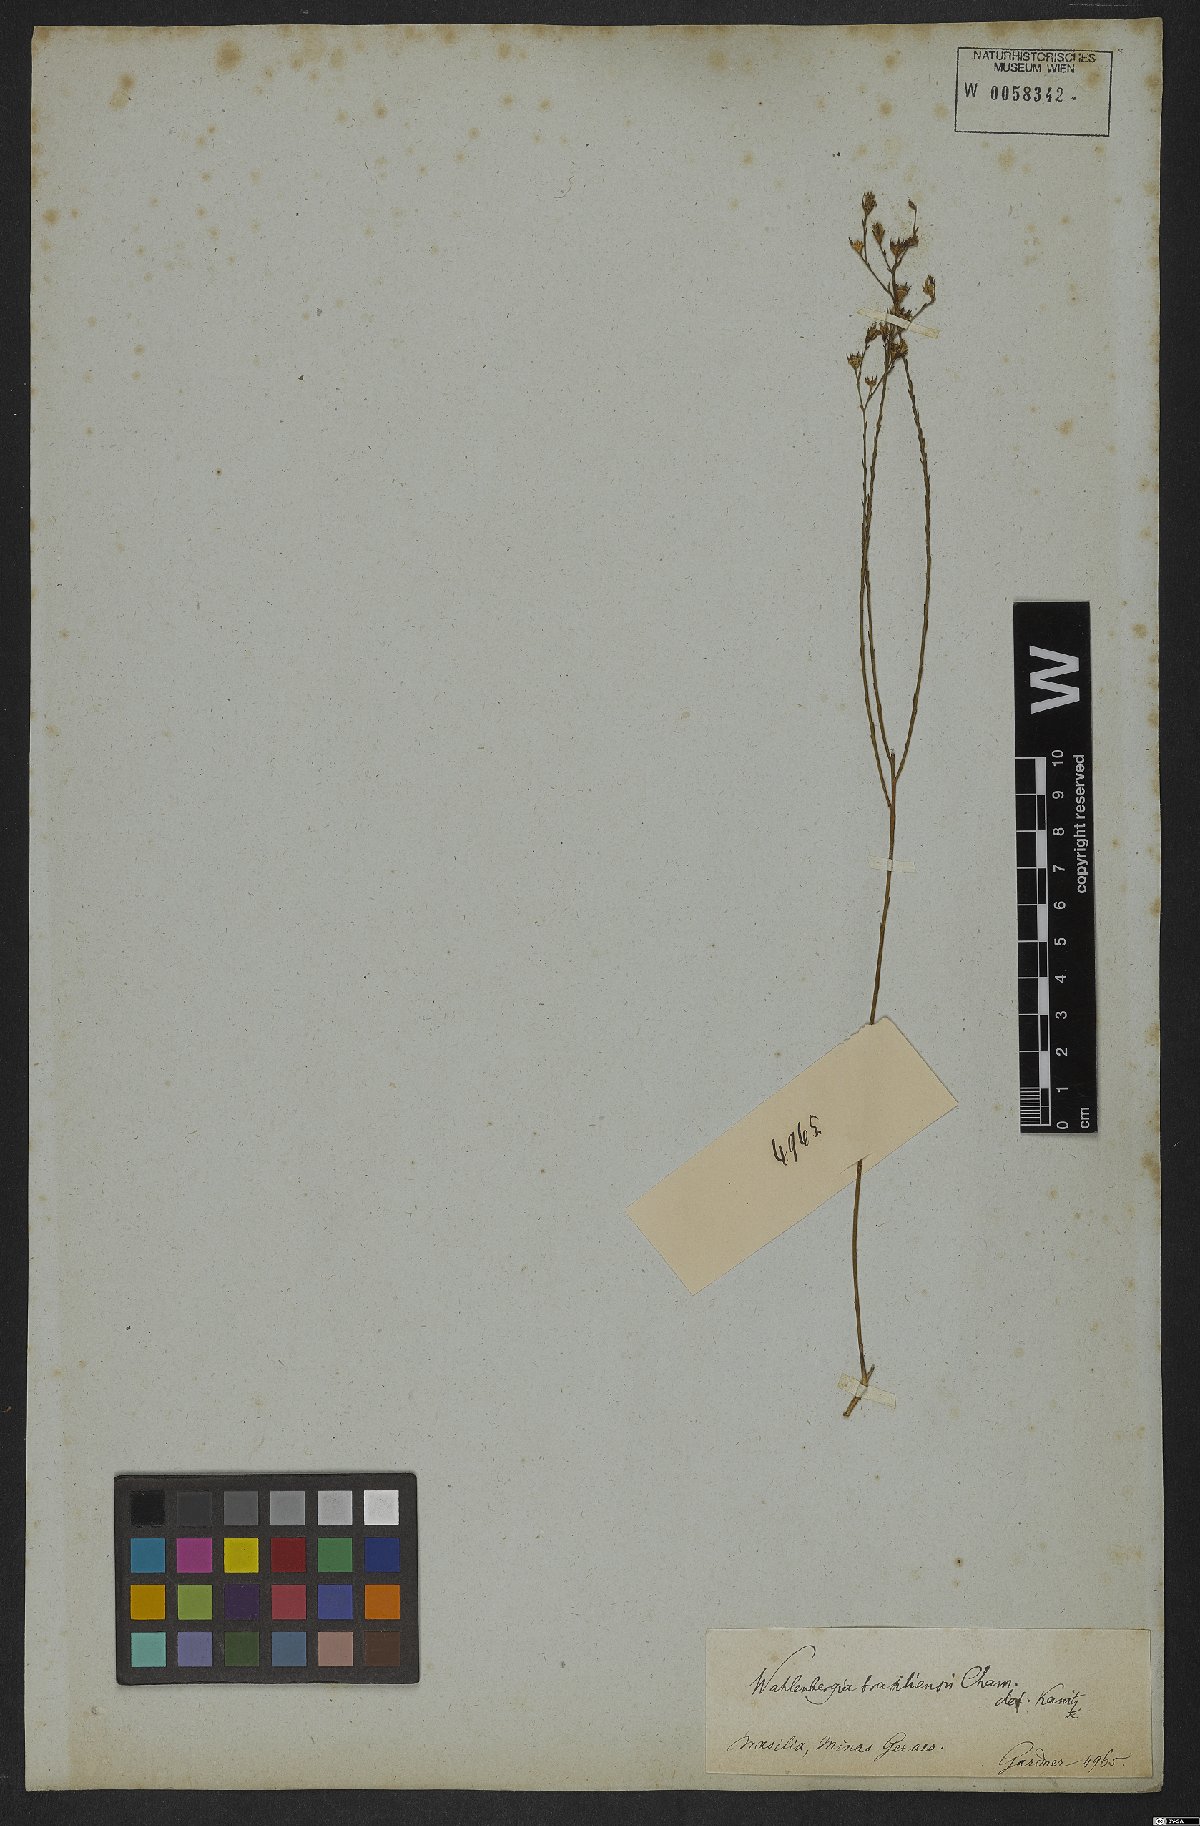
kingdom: Plantae
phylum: Tracheophyta
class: Magnoliopsida
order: Asterales
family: Campanulaceae
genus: Wahlenbergia
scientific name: Wahlenbergia brasiliensis
